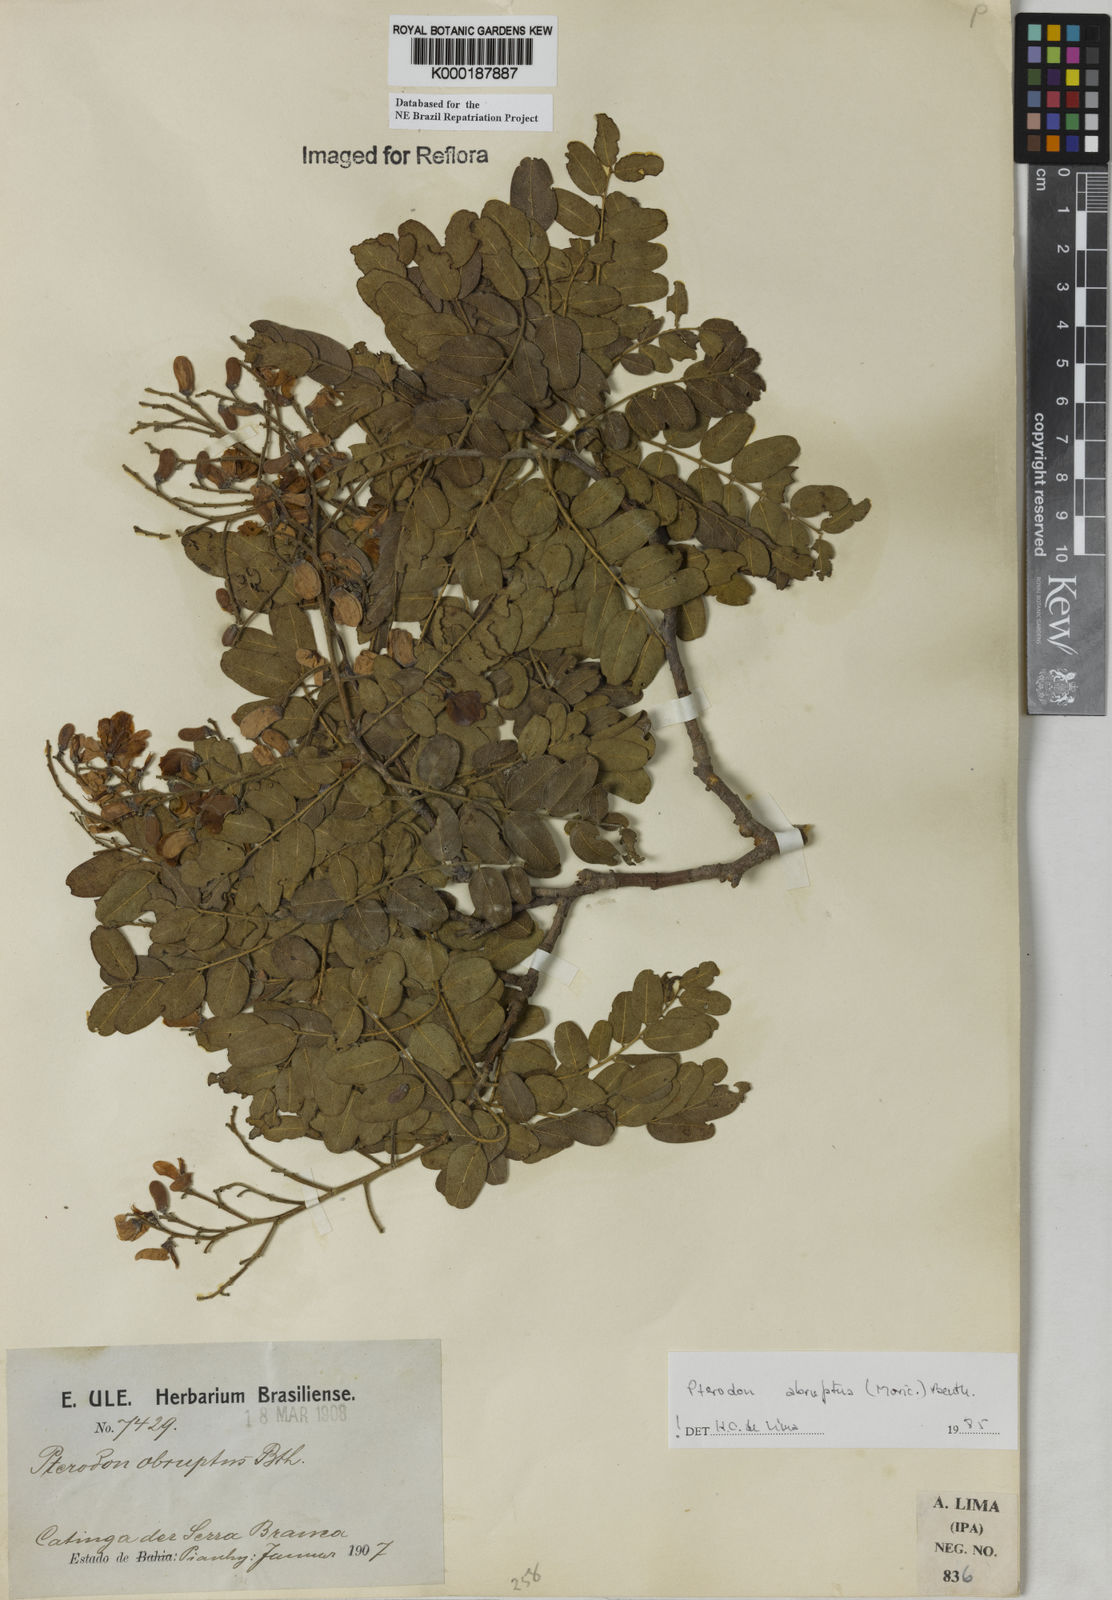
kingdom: Plantae
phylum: Tracheophyta
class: Magnoliopsida
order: Fabales
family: Fabaceae
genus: Pterodon
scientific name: Pterodon abruptus
